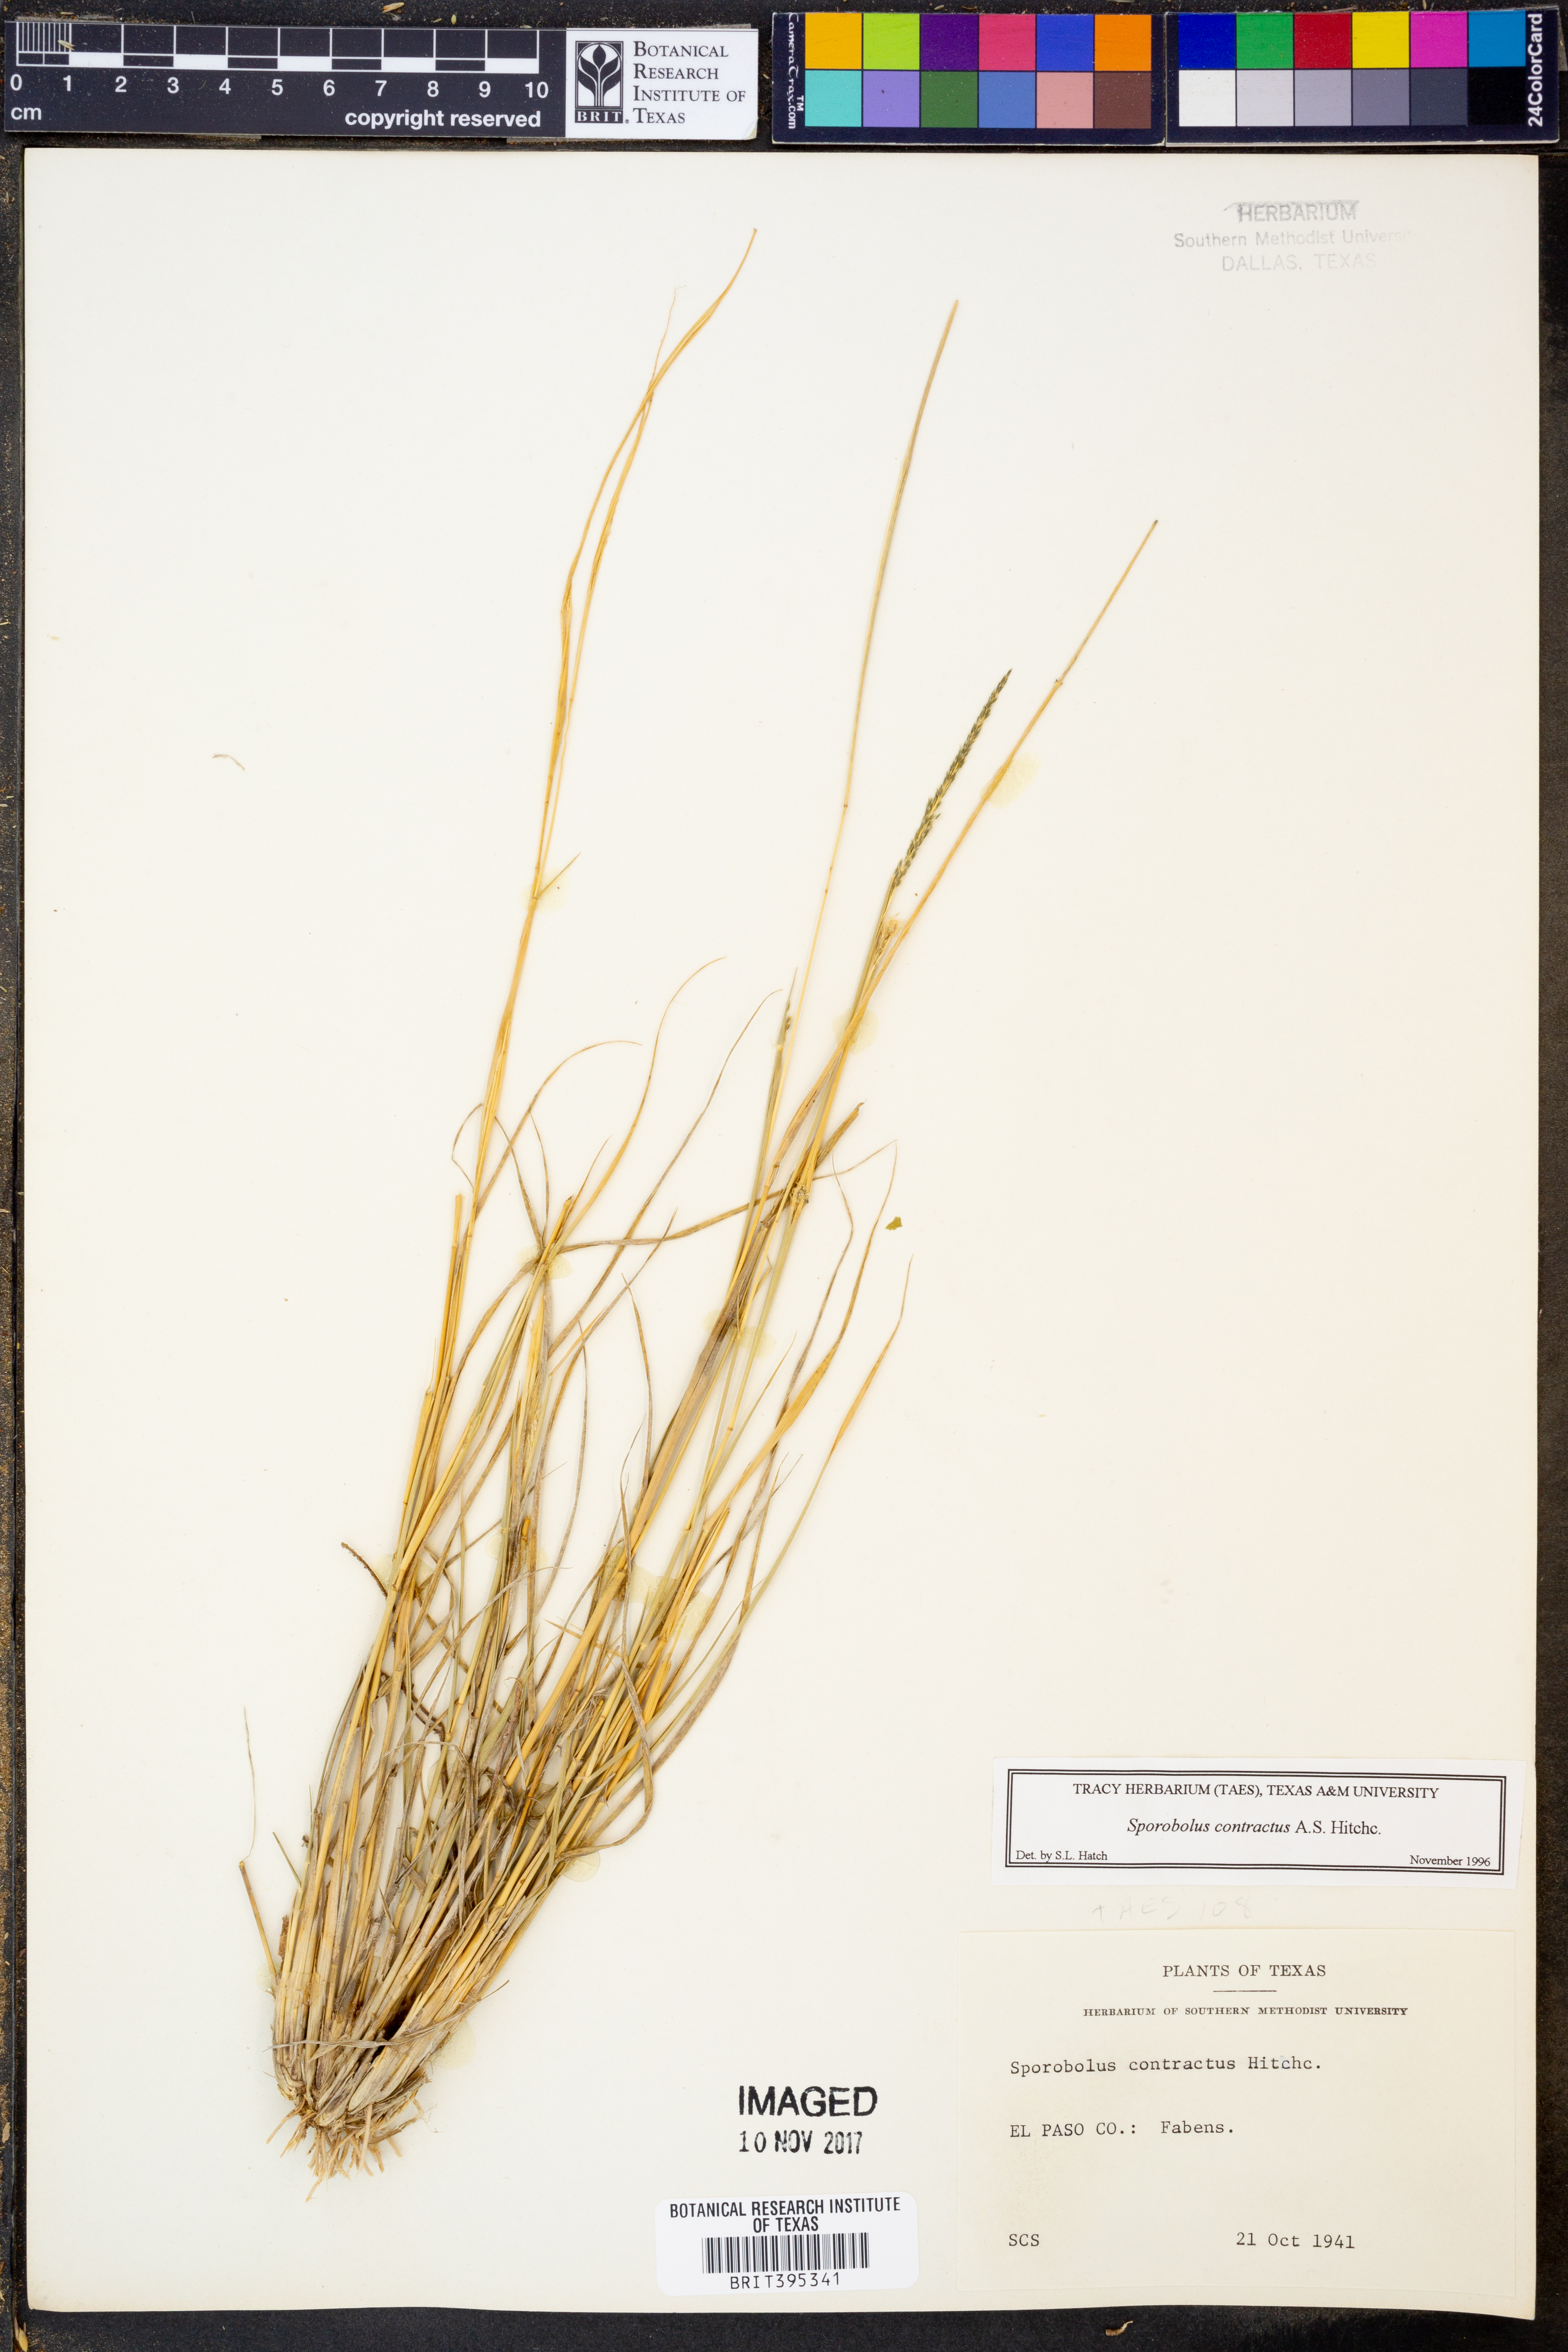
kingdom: Plantae
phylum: Tracheophyta
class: Liliopsida
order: Poales
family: Poaceae
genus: Sporobolus
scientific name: Sporobolus contractus
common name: Spike dropseed
